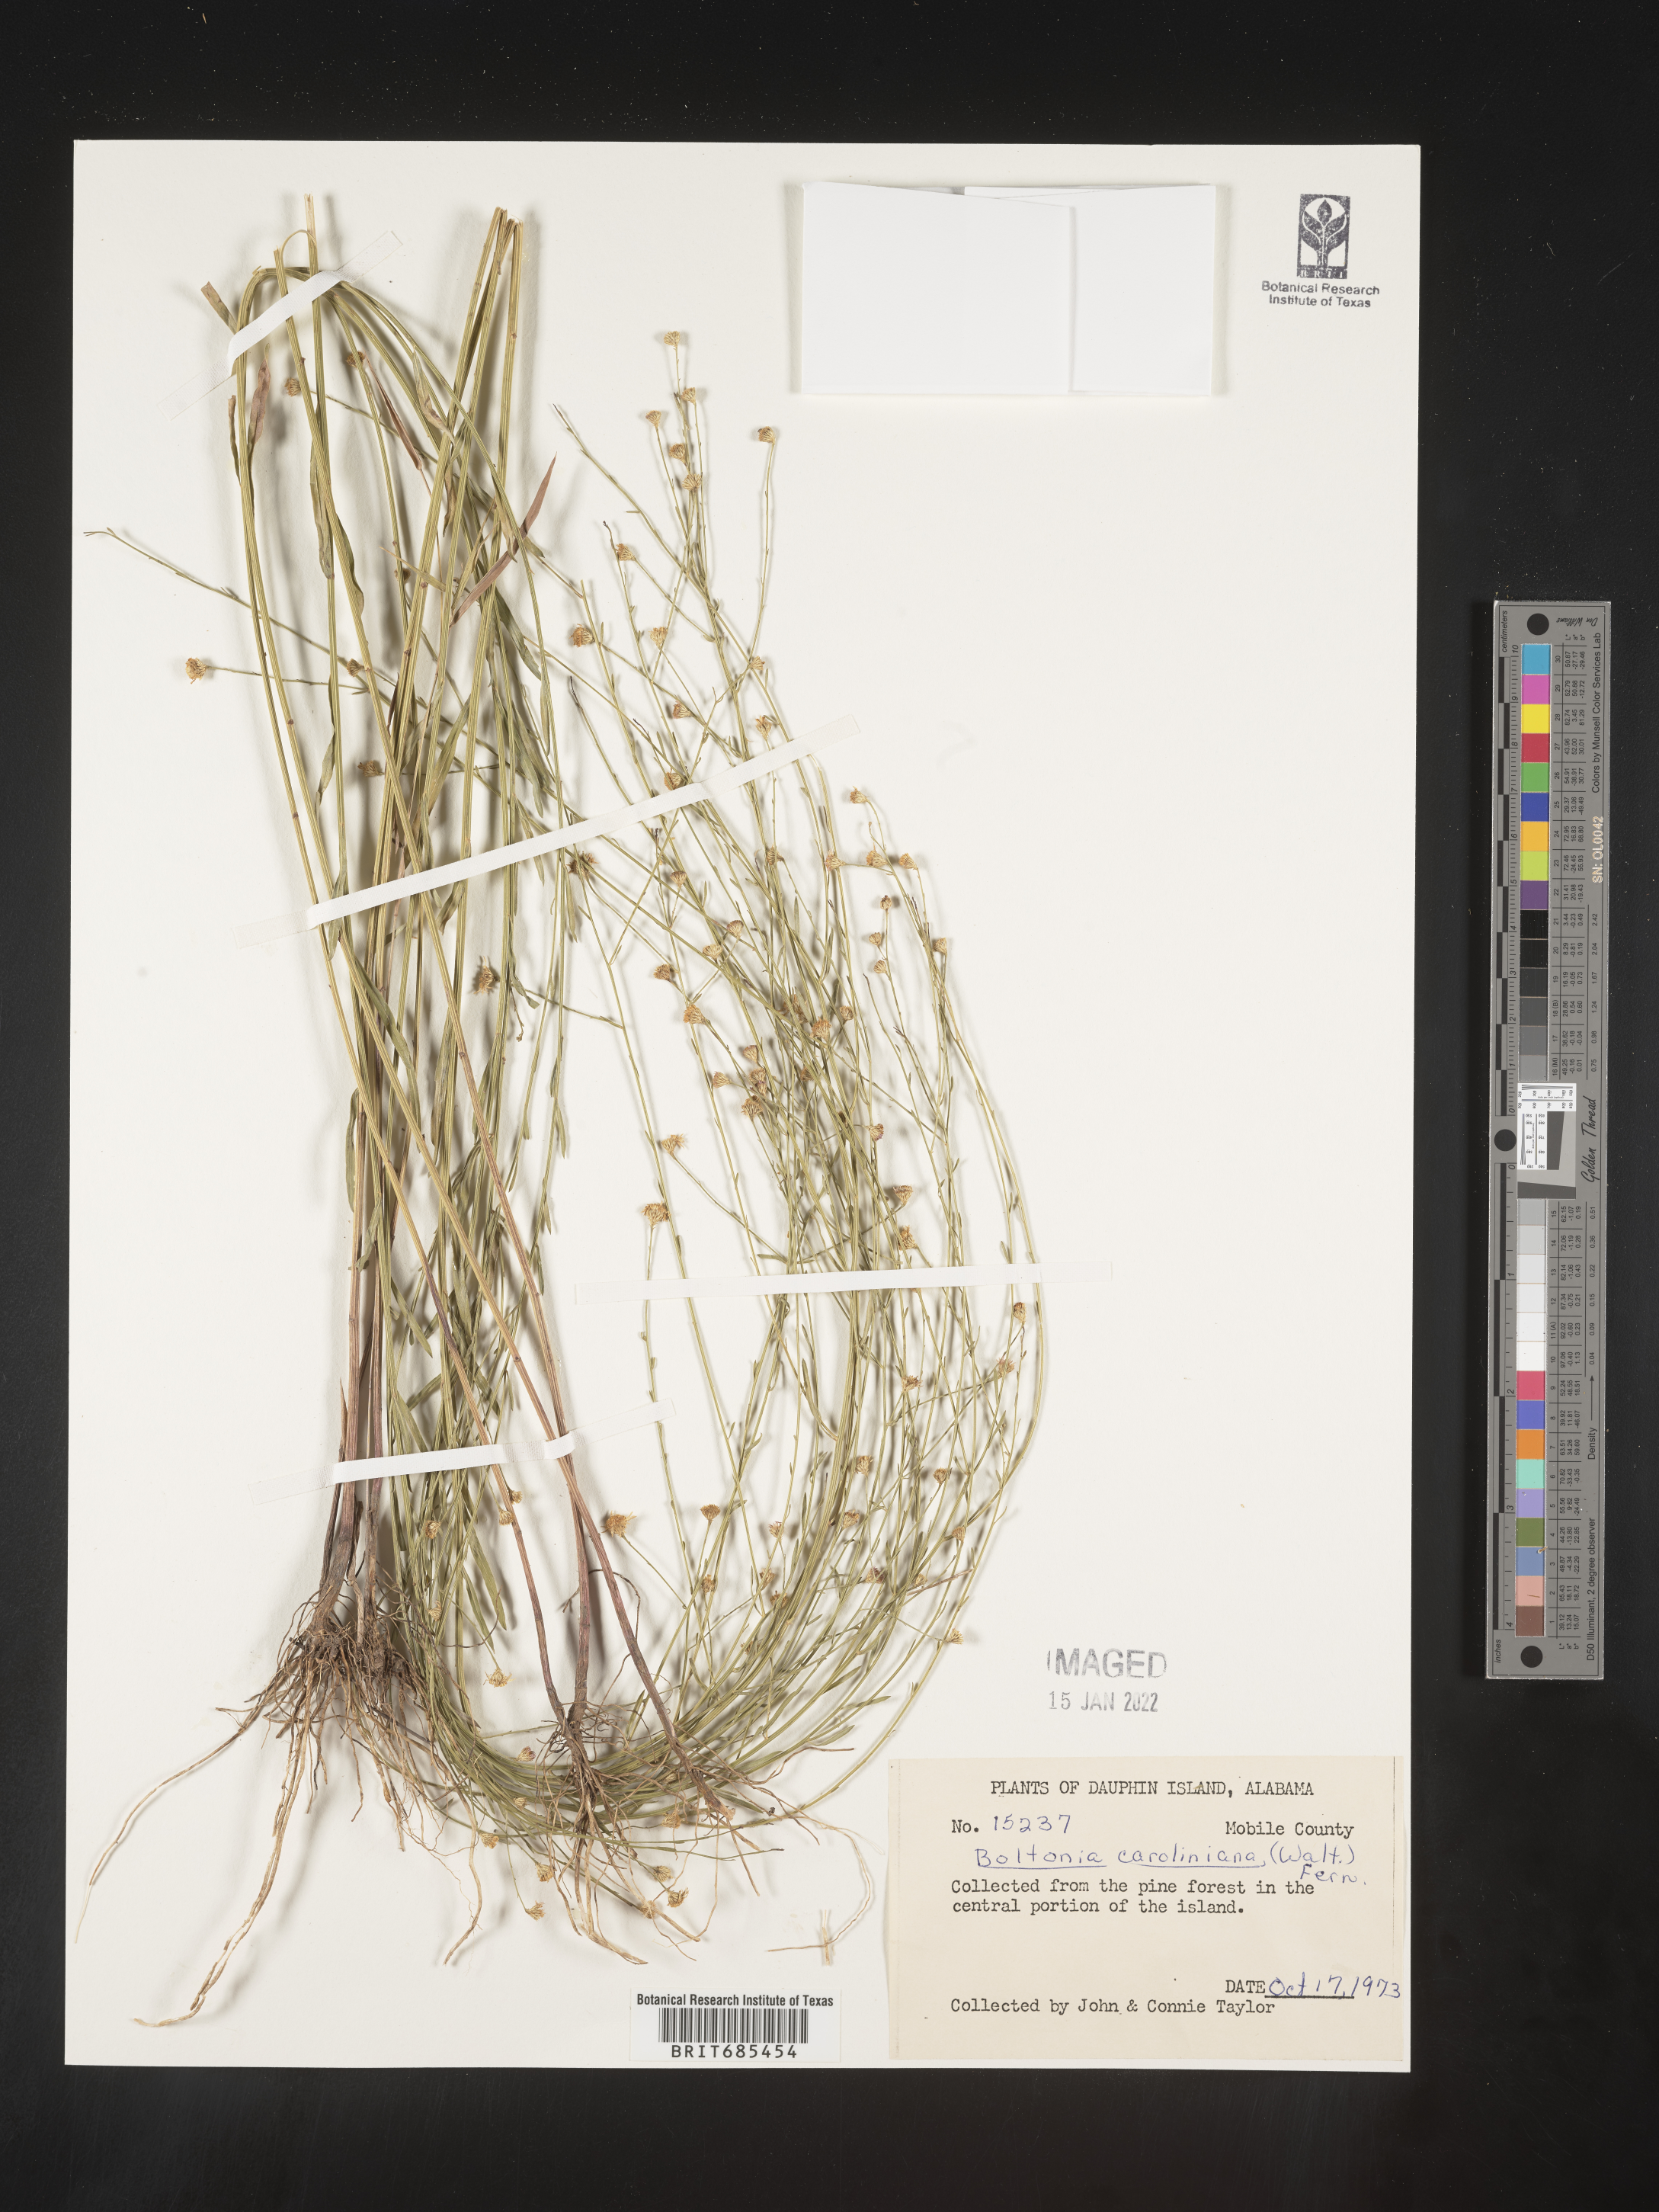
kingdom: Plantae
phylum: Tracheophyta
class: Magnoliopsida
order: Asterales
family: Asteraceae
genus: Boltonia
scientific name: Boltonia caroliniana
